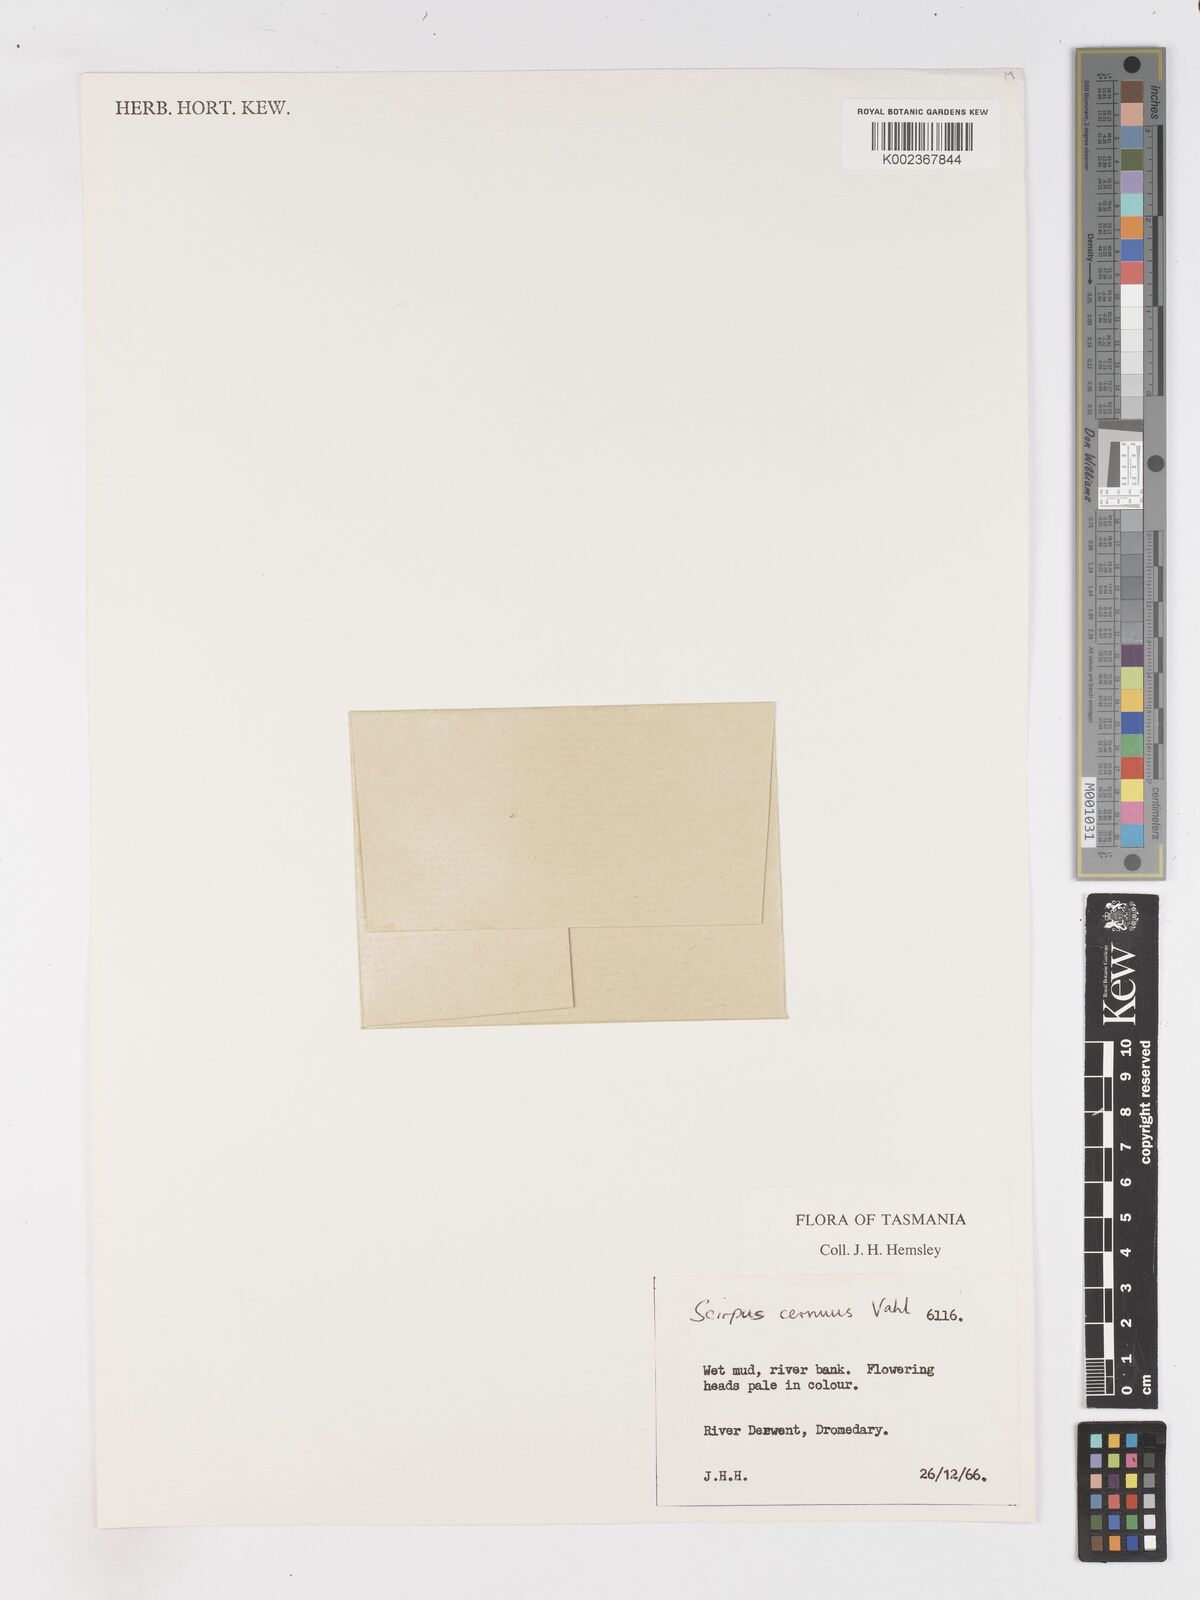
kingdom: Plantae
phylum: Tracheophyta
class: Liliopsida
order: Poales
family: Cyperaceae
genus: Isolepis
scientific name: Isolepis cernua
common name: Slender club-rush
